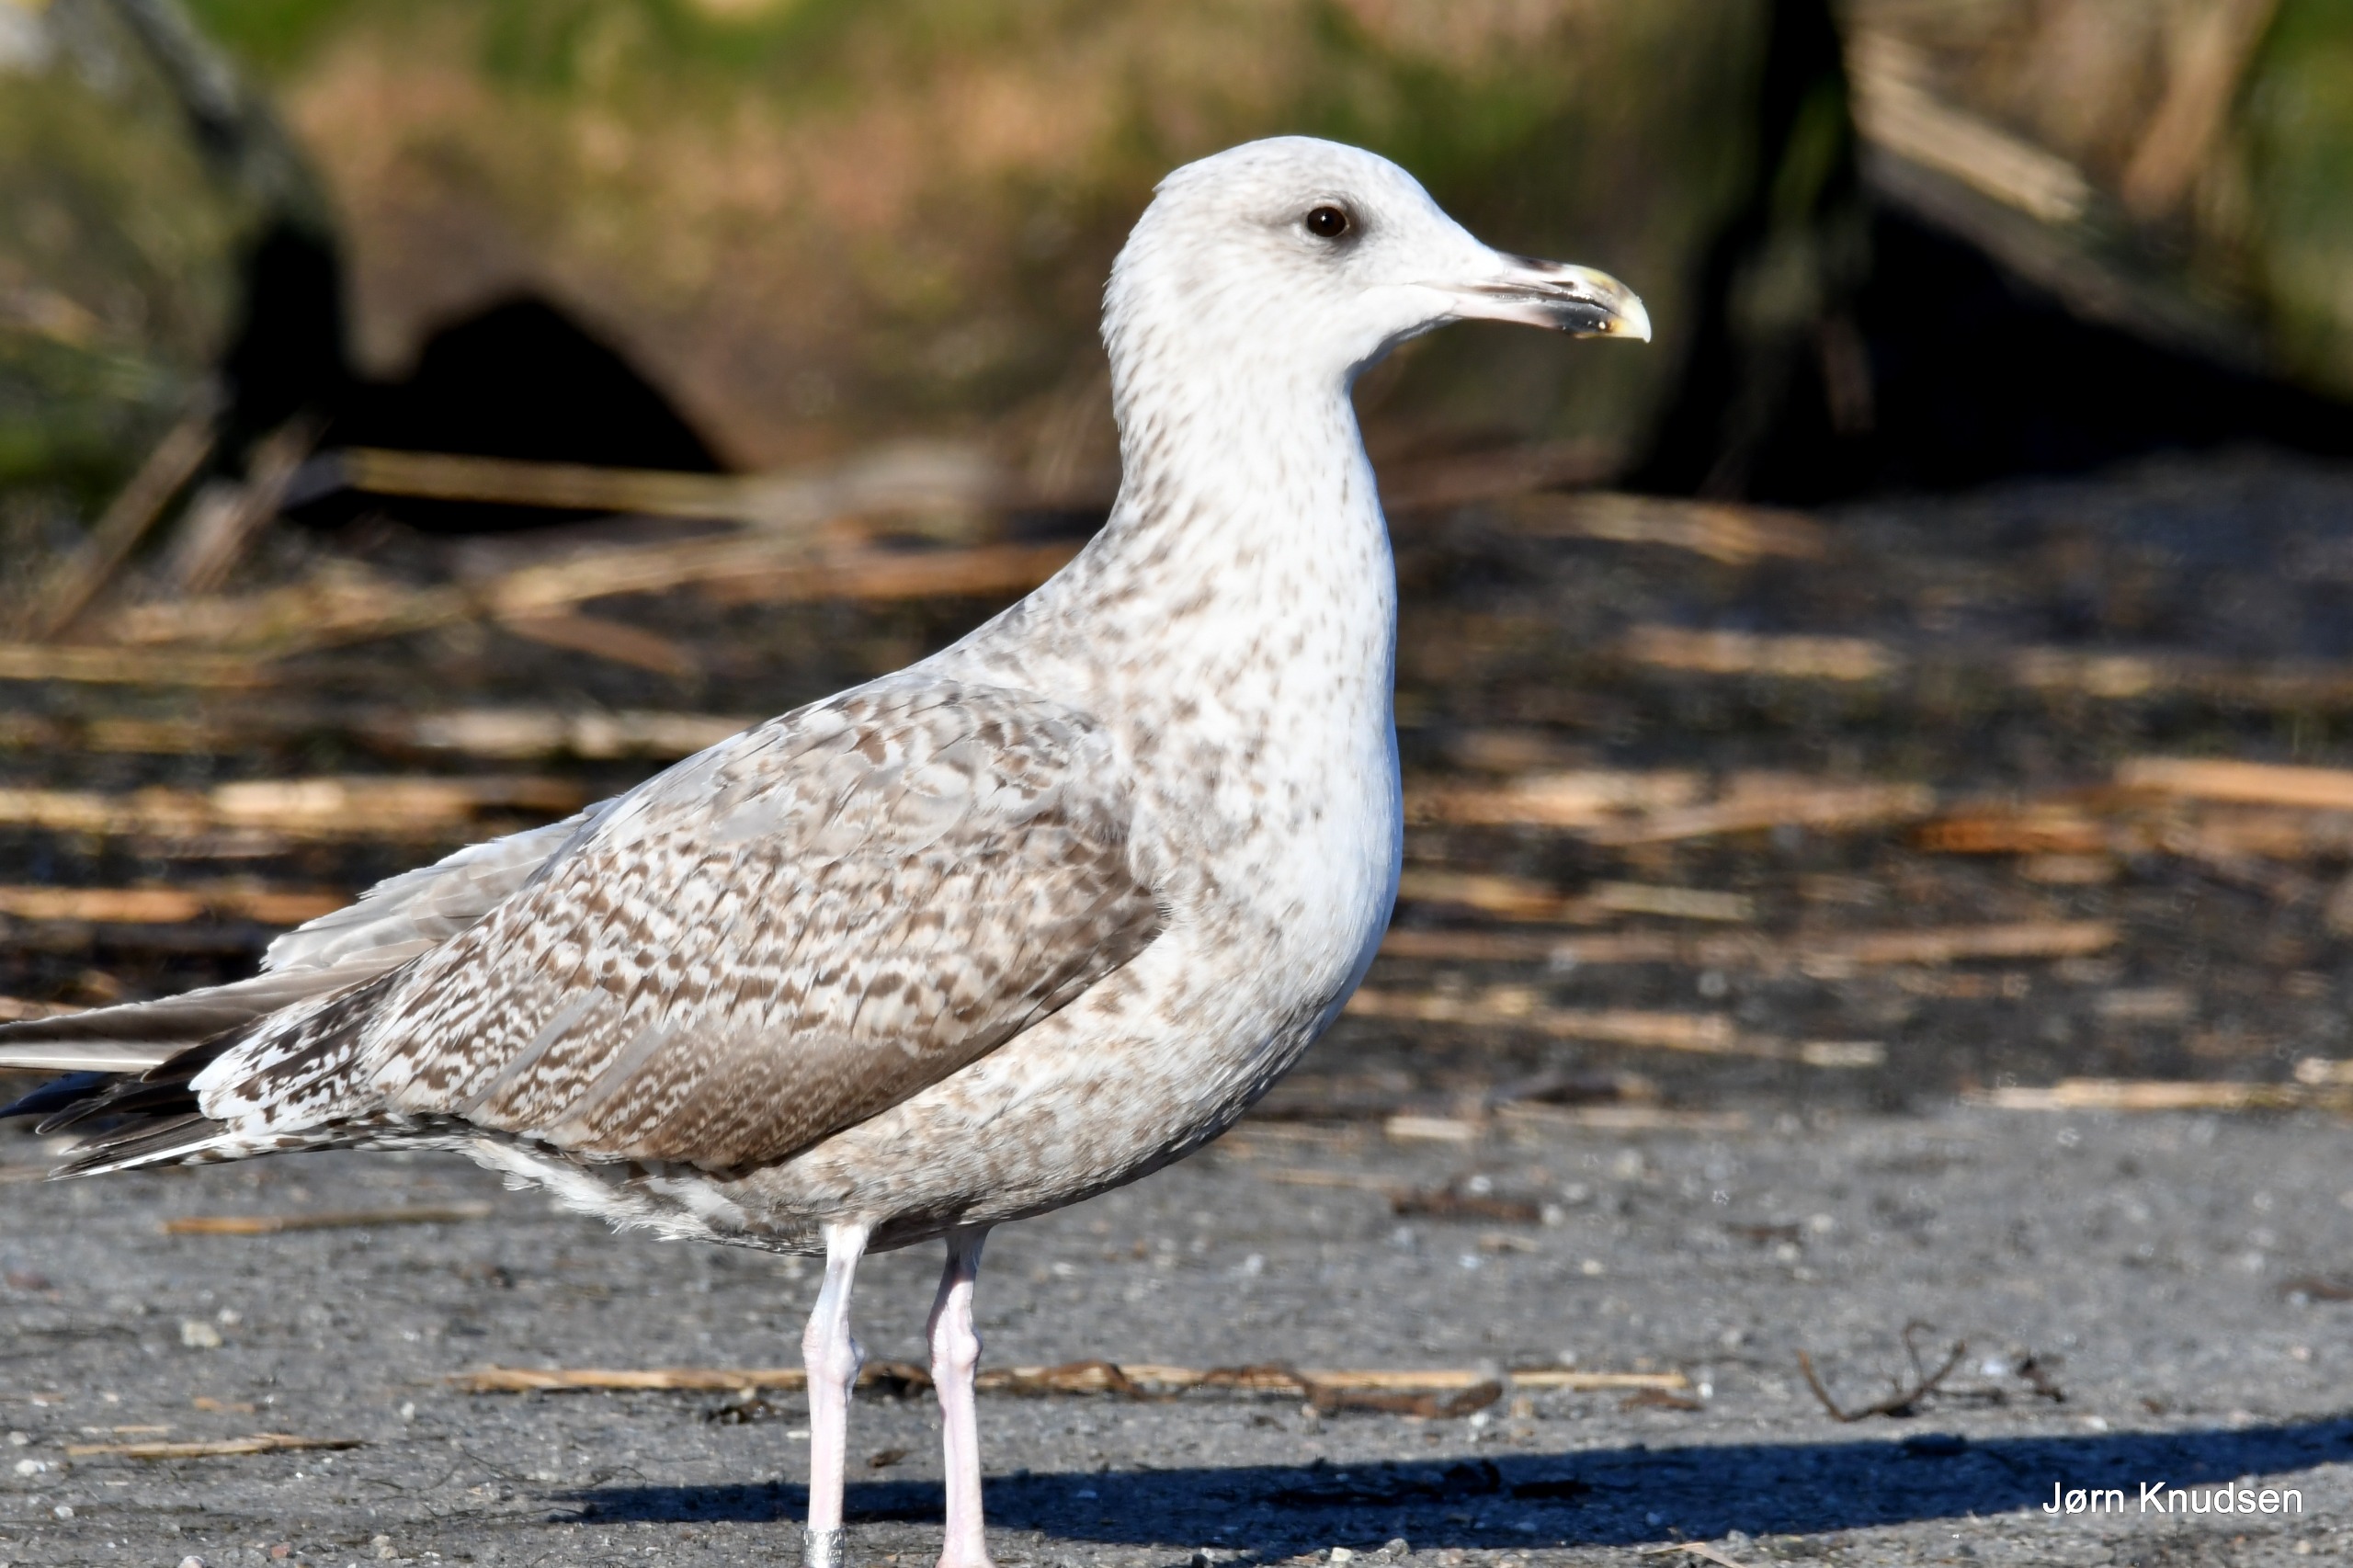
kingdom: Animalia
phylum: Chordata
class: Aves
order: Charadriiformes
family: Laridae
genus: Larus
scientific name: Larus argentatus
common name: Sølvmåge
